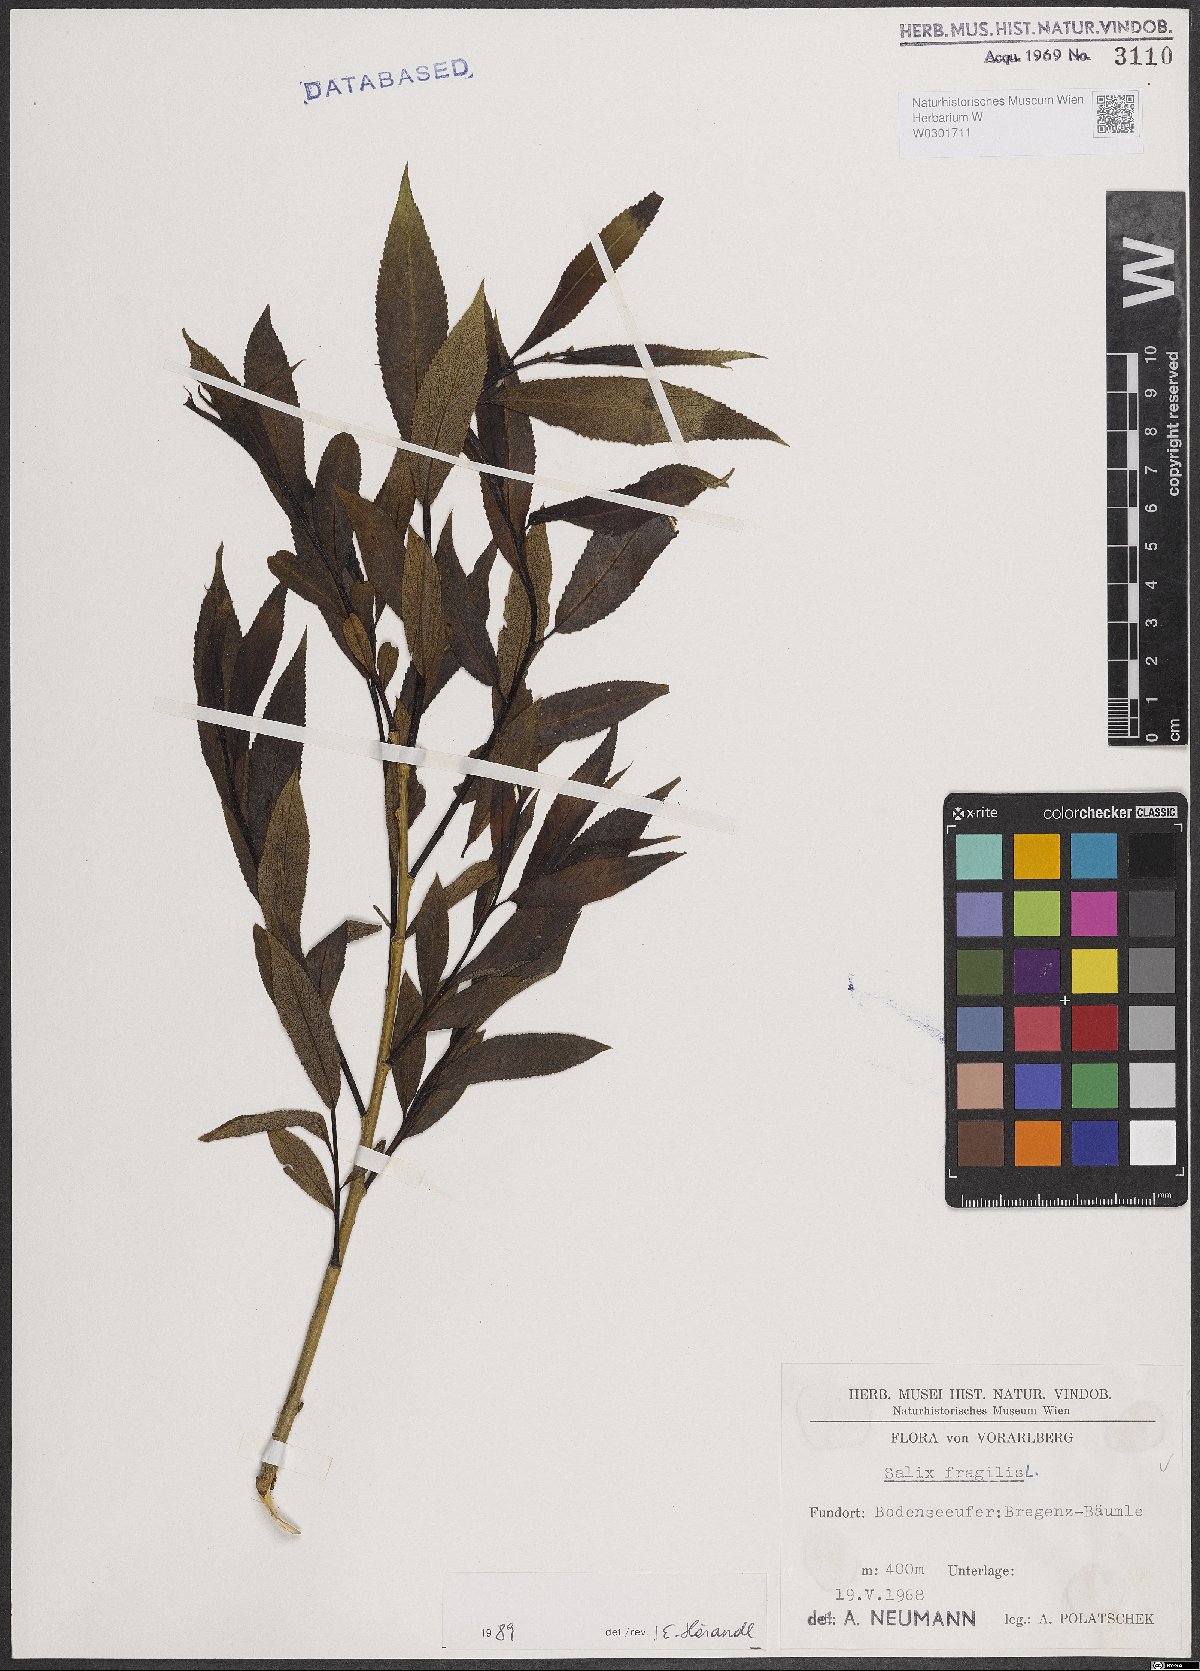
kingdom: Plantae
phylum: Tracheophyta
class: Magnoliopsida
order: Malpighiales
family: Salicaceae
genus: Salix
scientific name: Salix fragilis
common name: Crack willow
